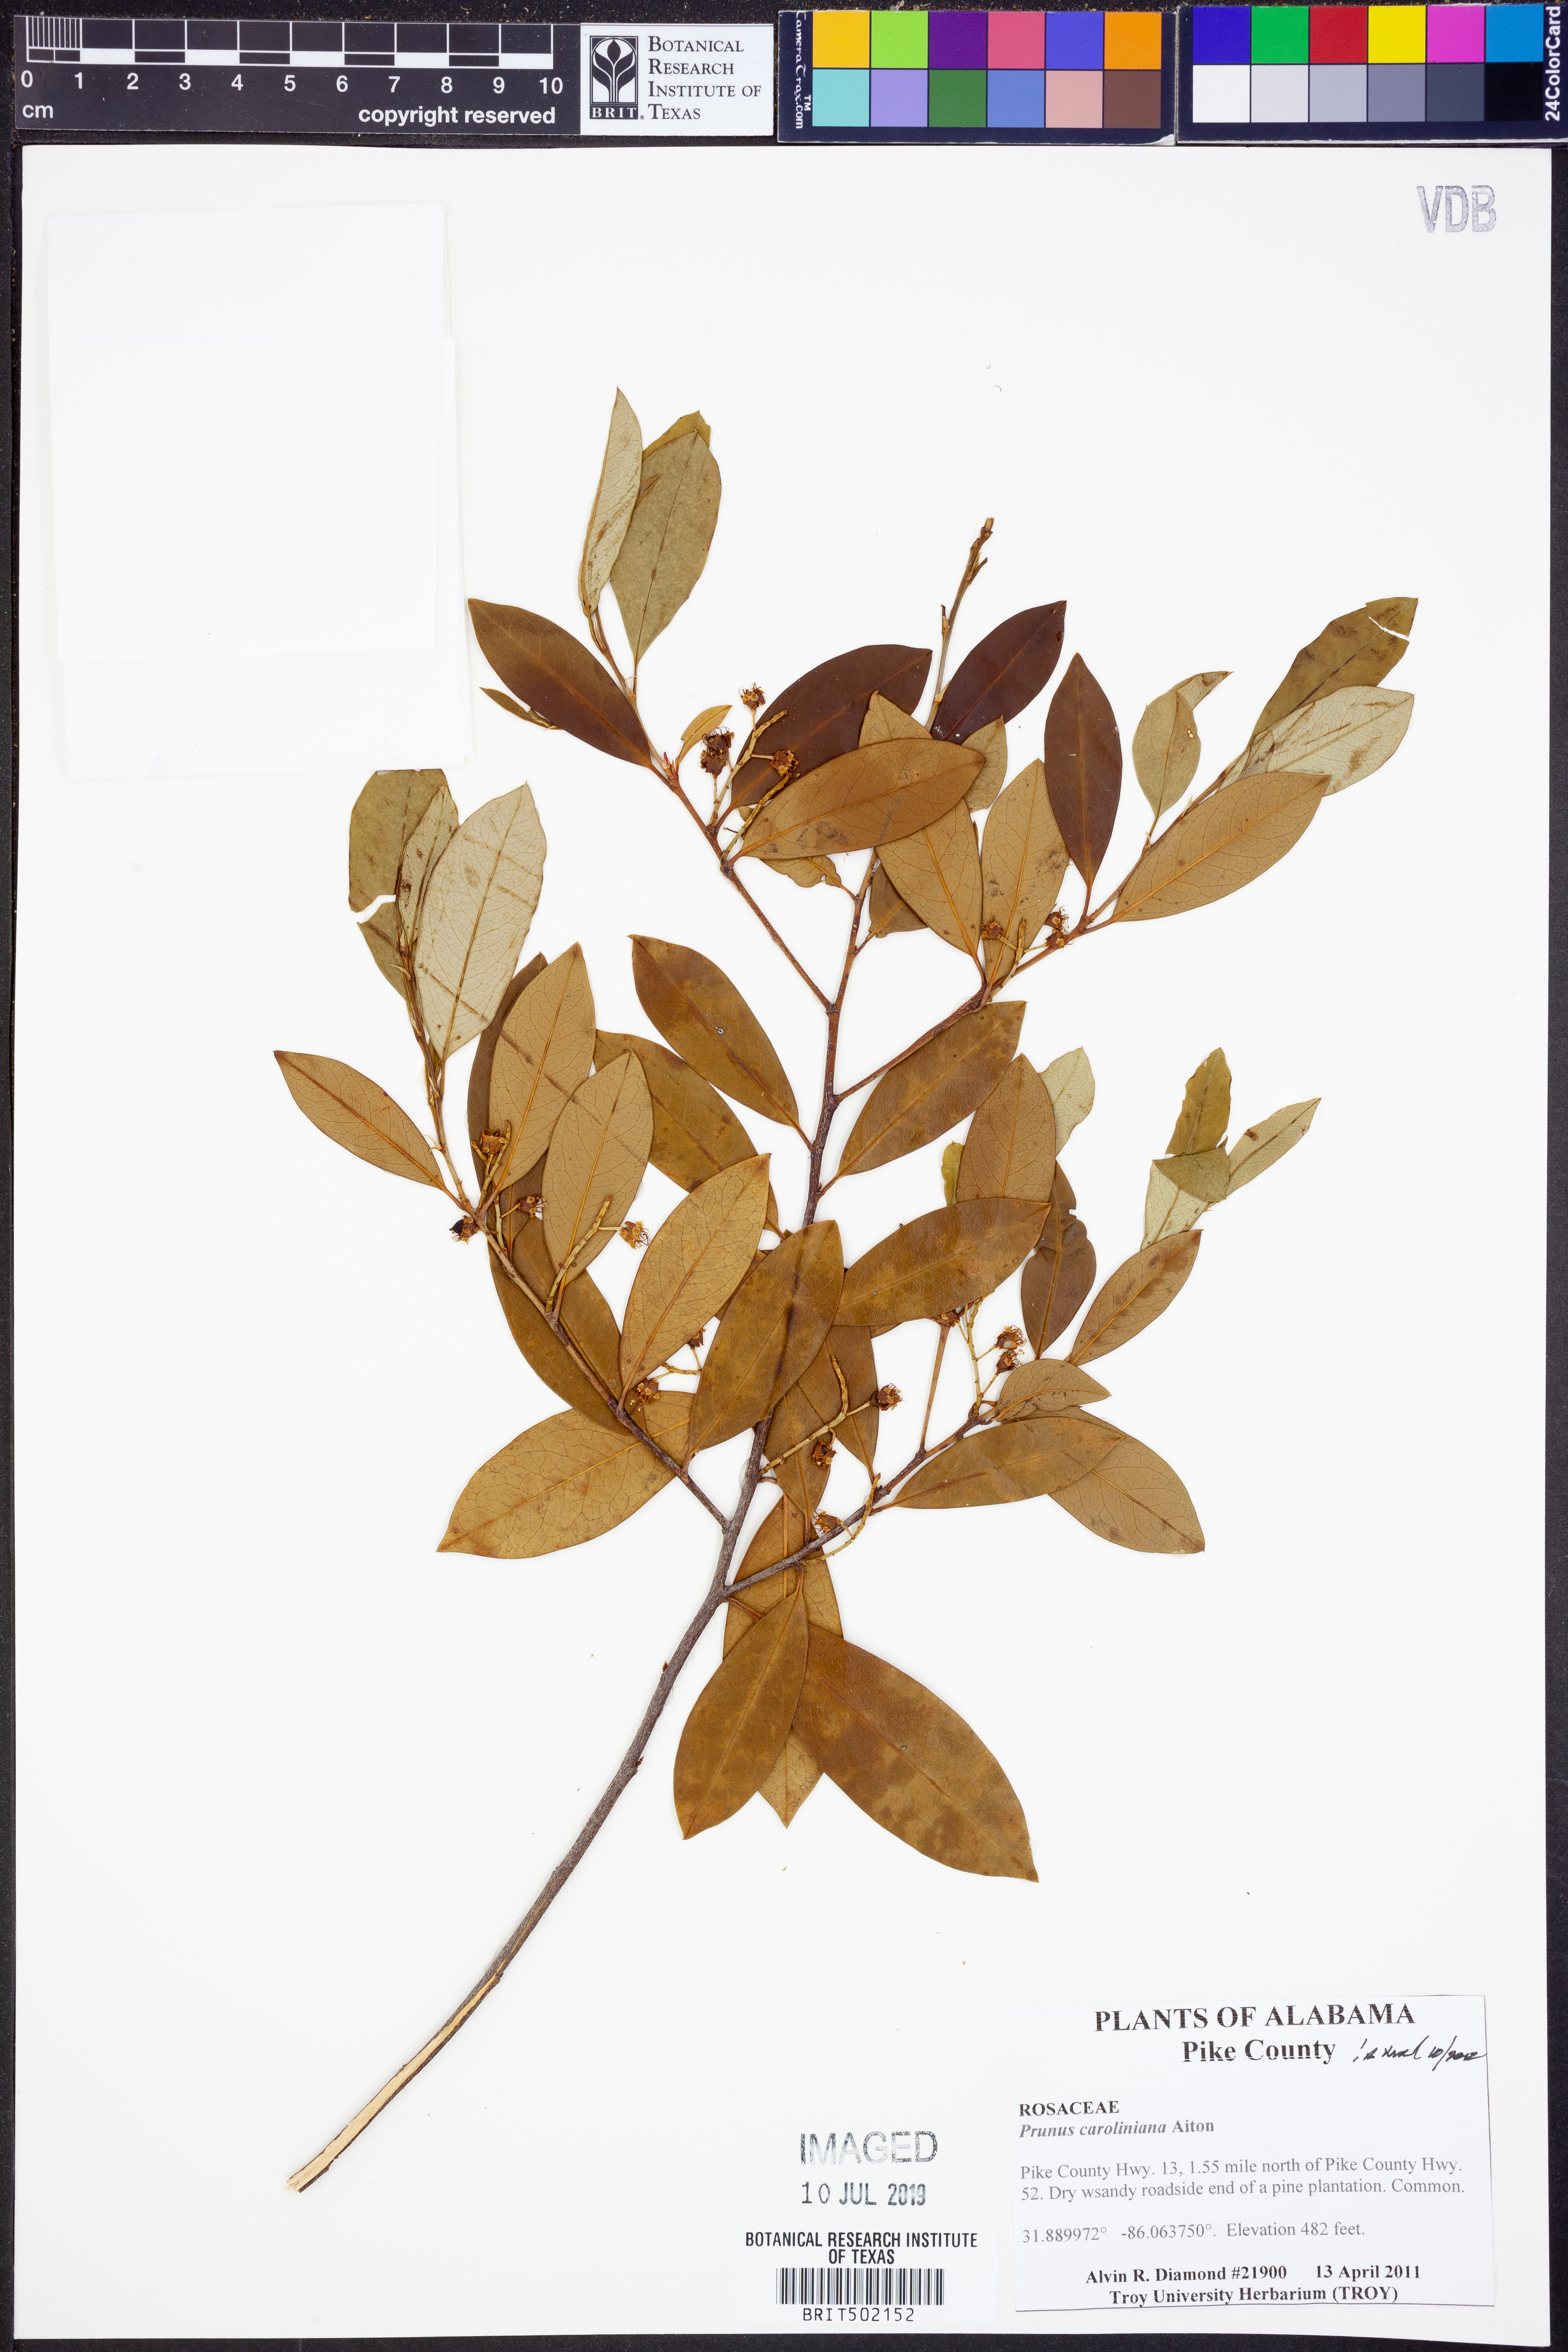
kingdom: Plantae
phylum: Tracheophyta
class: Magnoliopsida
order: Rosales
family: Rosaceae
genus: Prunus
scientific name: Prunus caroliniana
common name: Carolina laurel cherry
